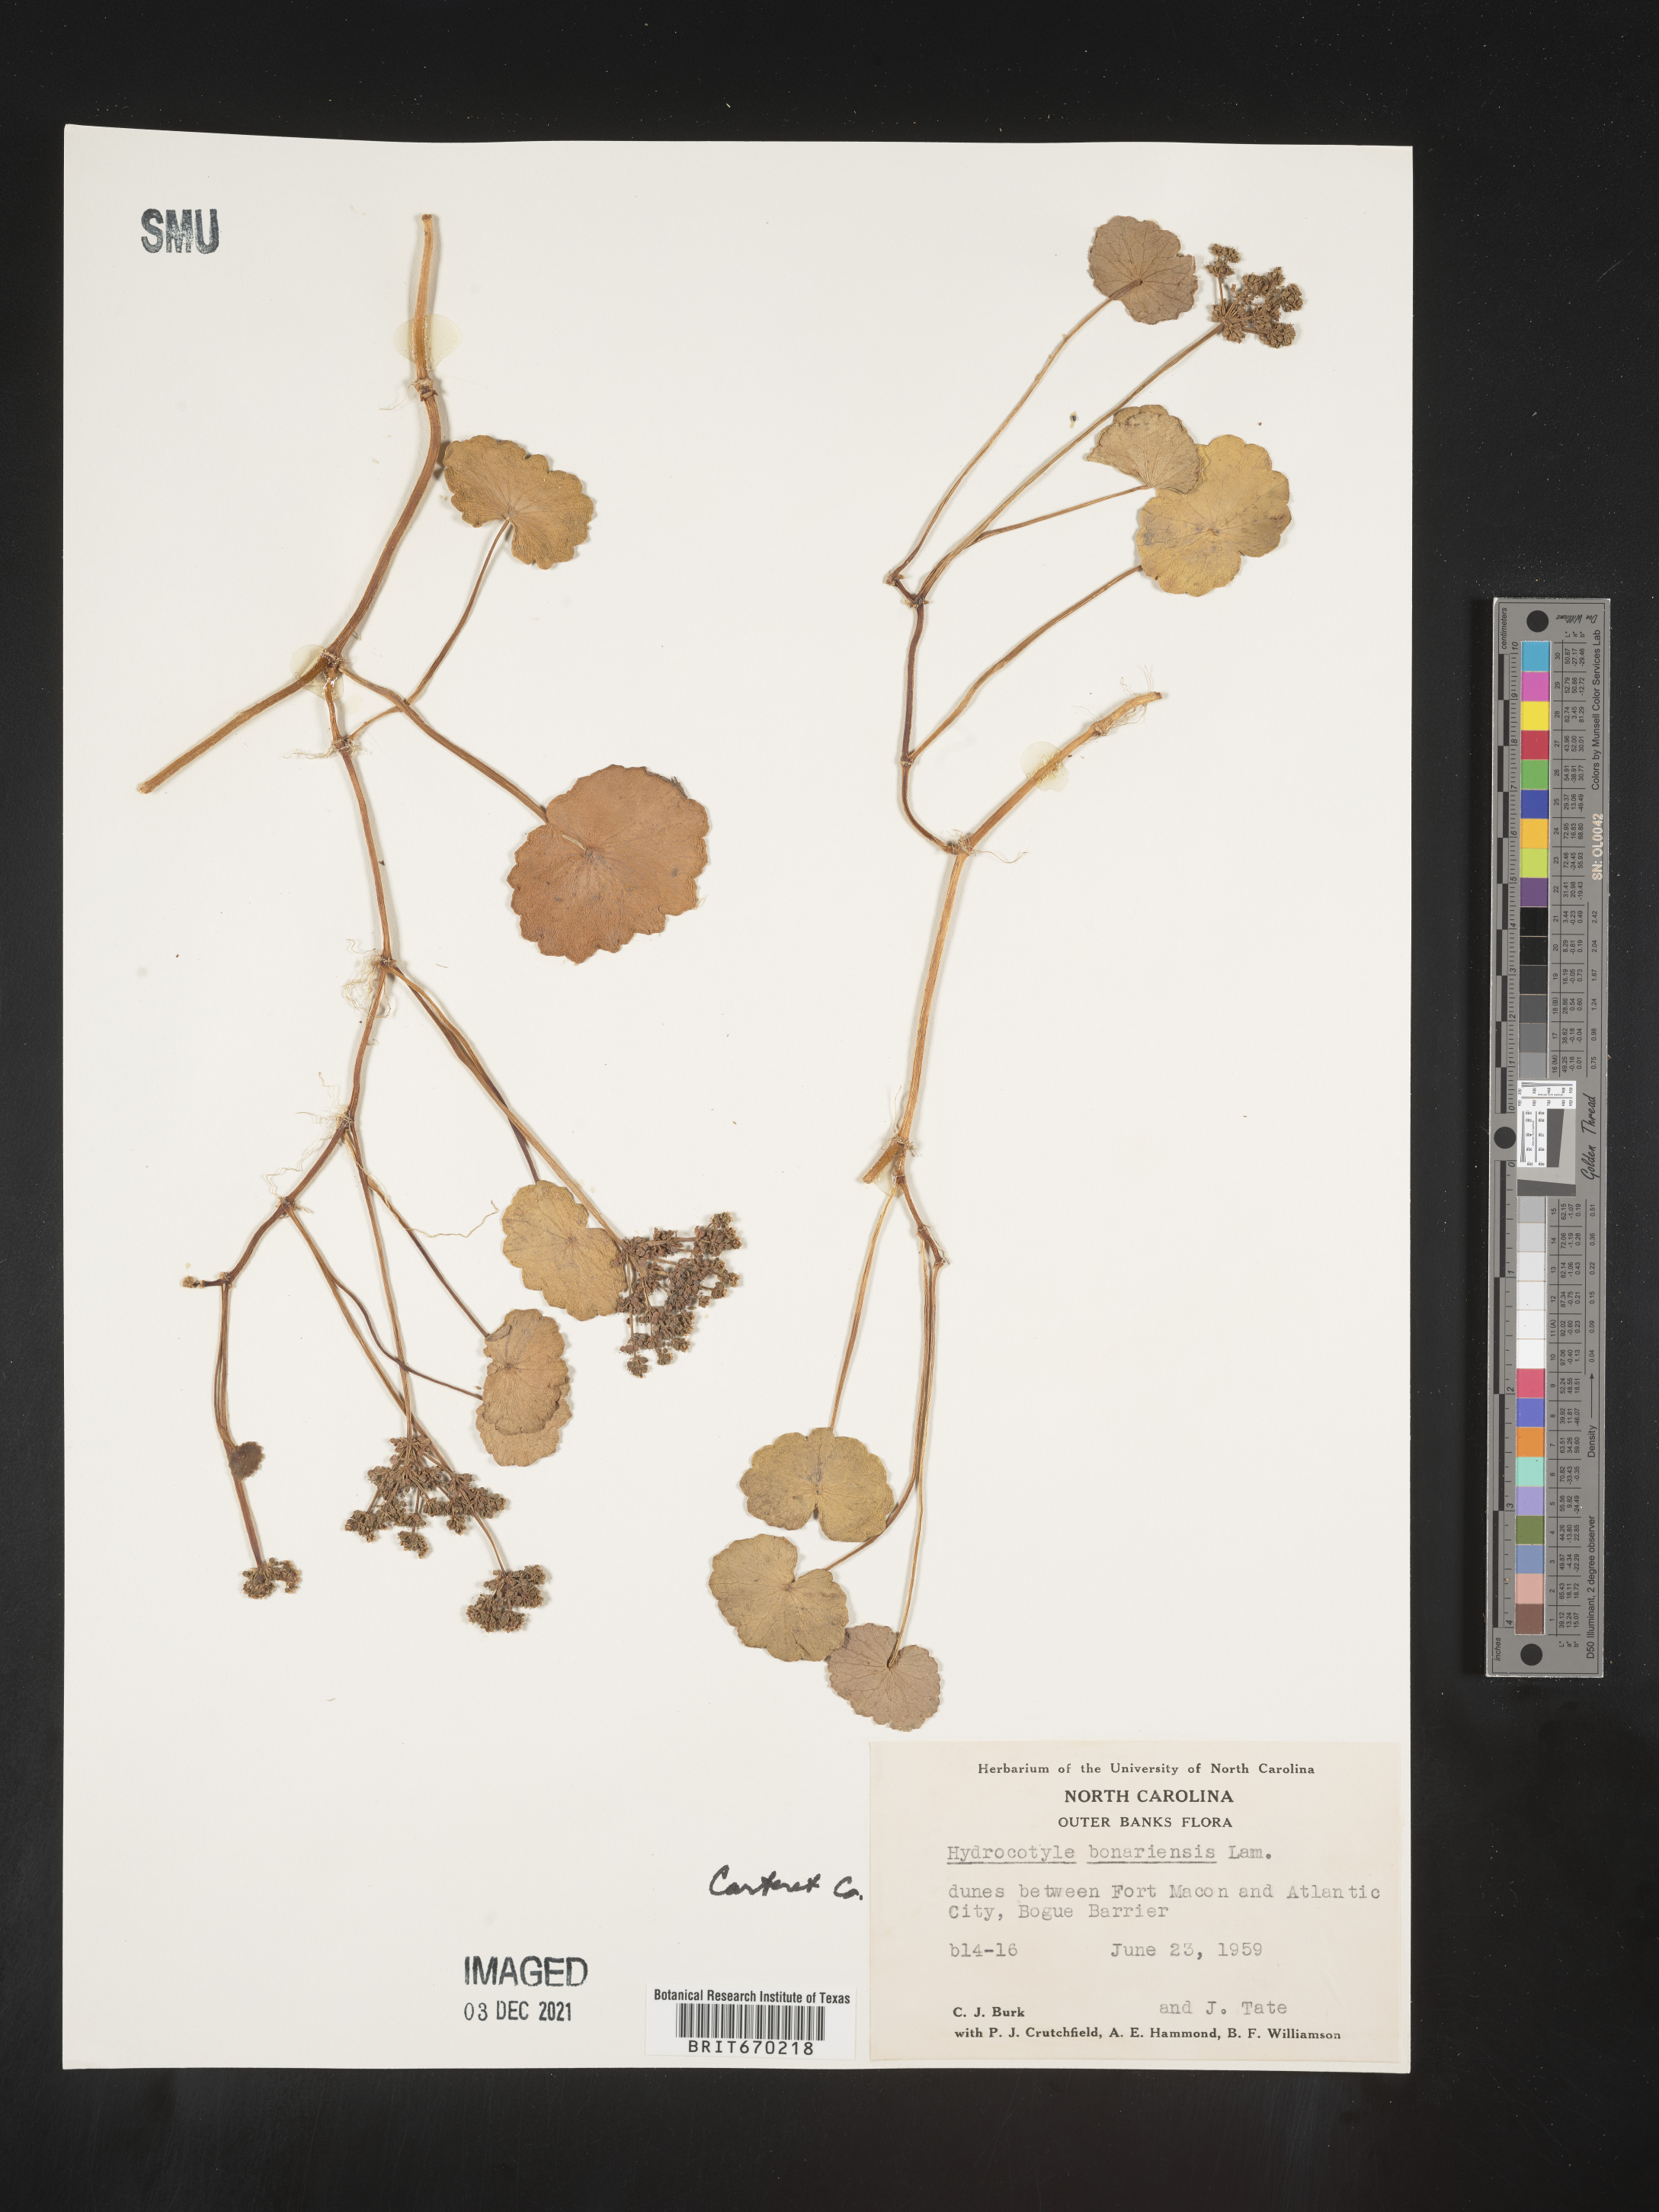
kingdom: Plantae
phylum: Tracheophyta
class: Magnoliopsida
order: Apiales
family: Araliaceae
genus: Hydrocotyle
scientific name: Hydrocotyle bonariensis
